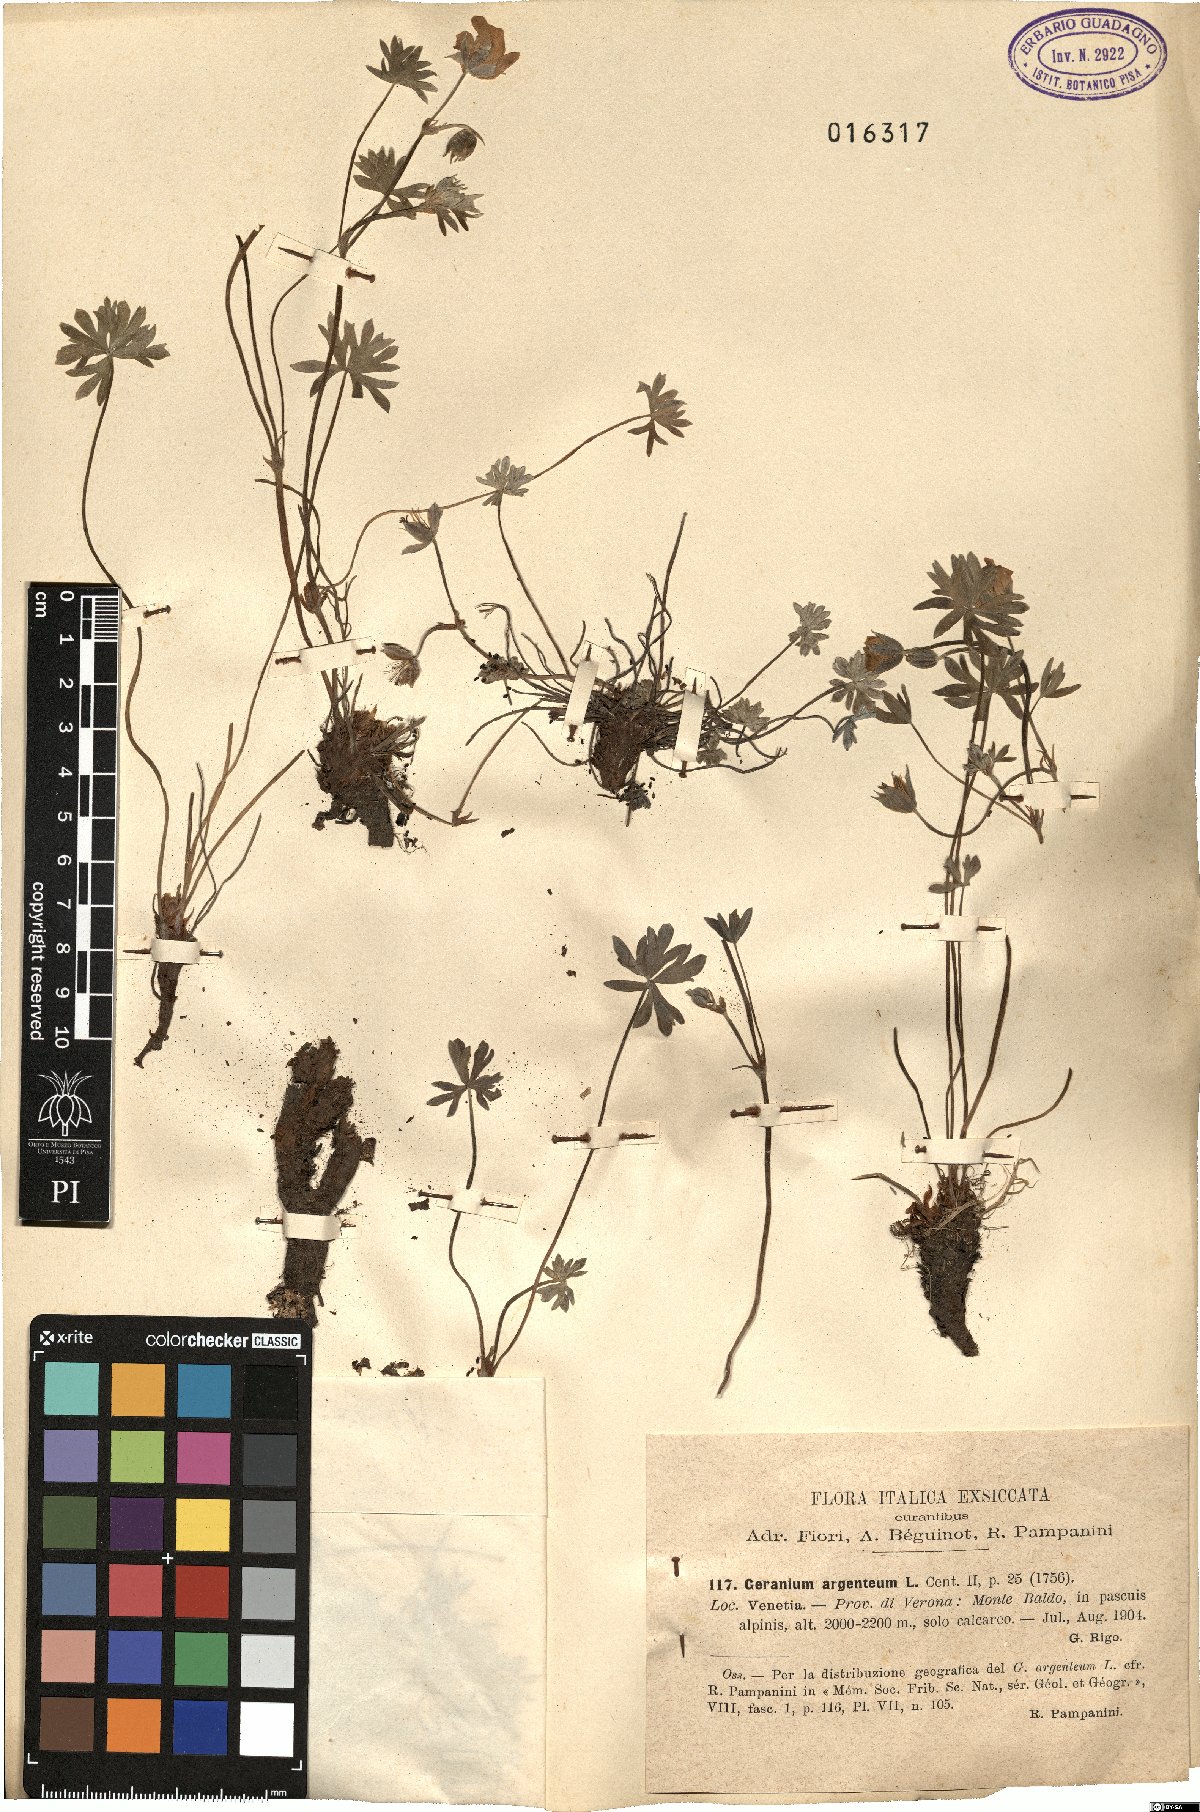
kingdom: Plantae
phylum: Tracheophyta
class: Magnoliopsida
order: Geraniales
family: Geraniaceae
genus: Geranium
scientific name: Geranium argenteum
